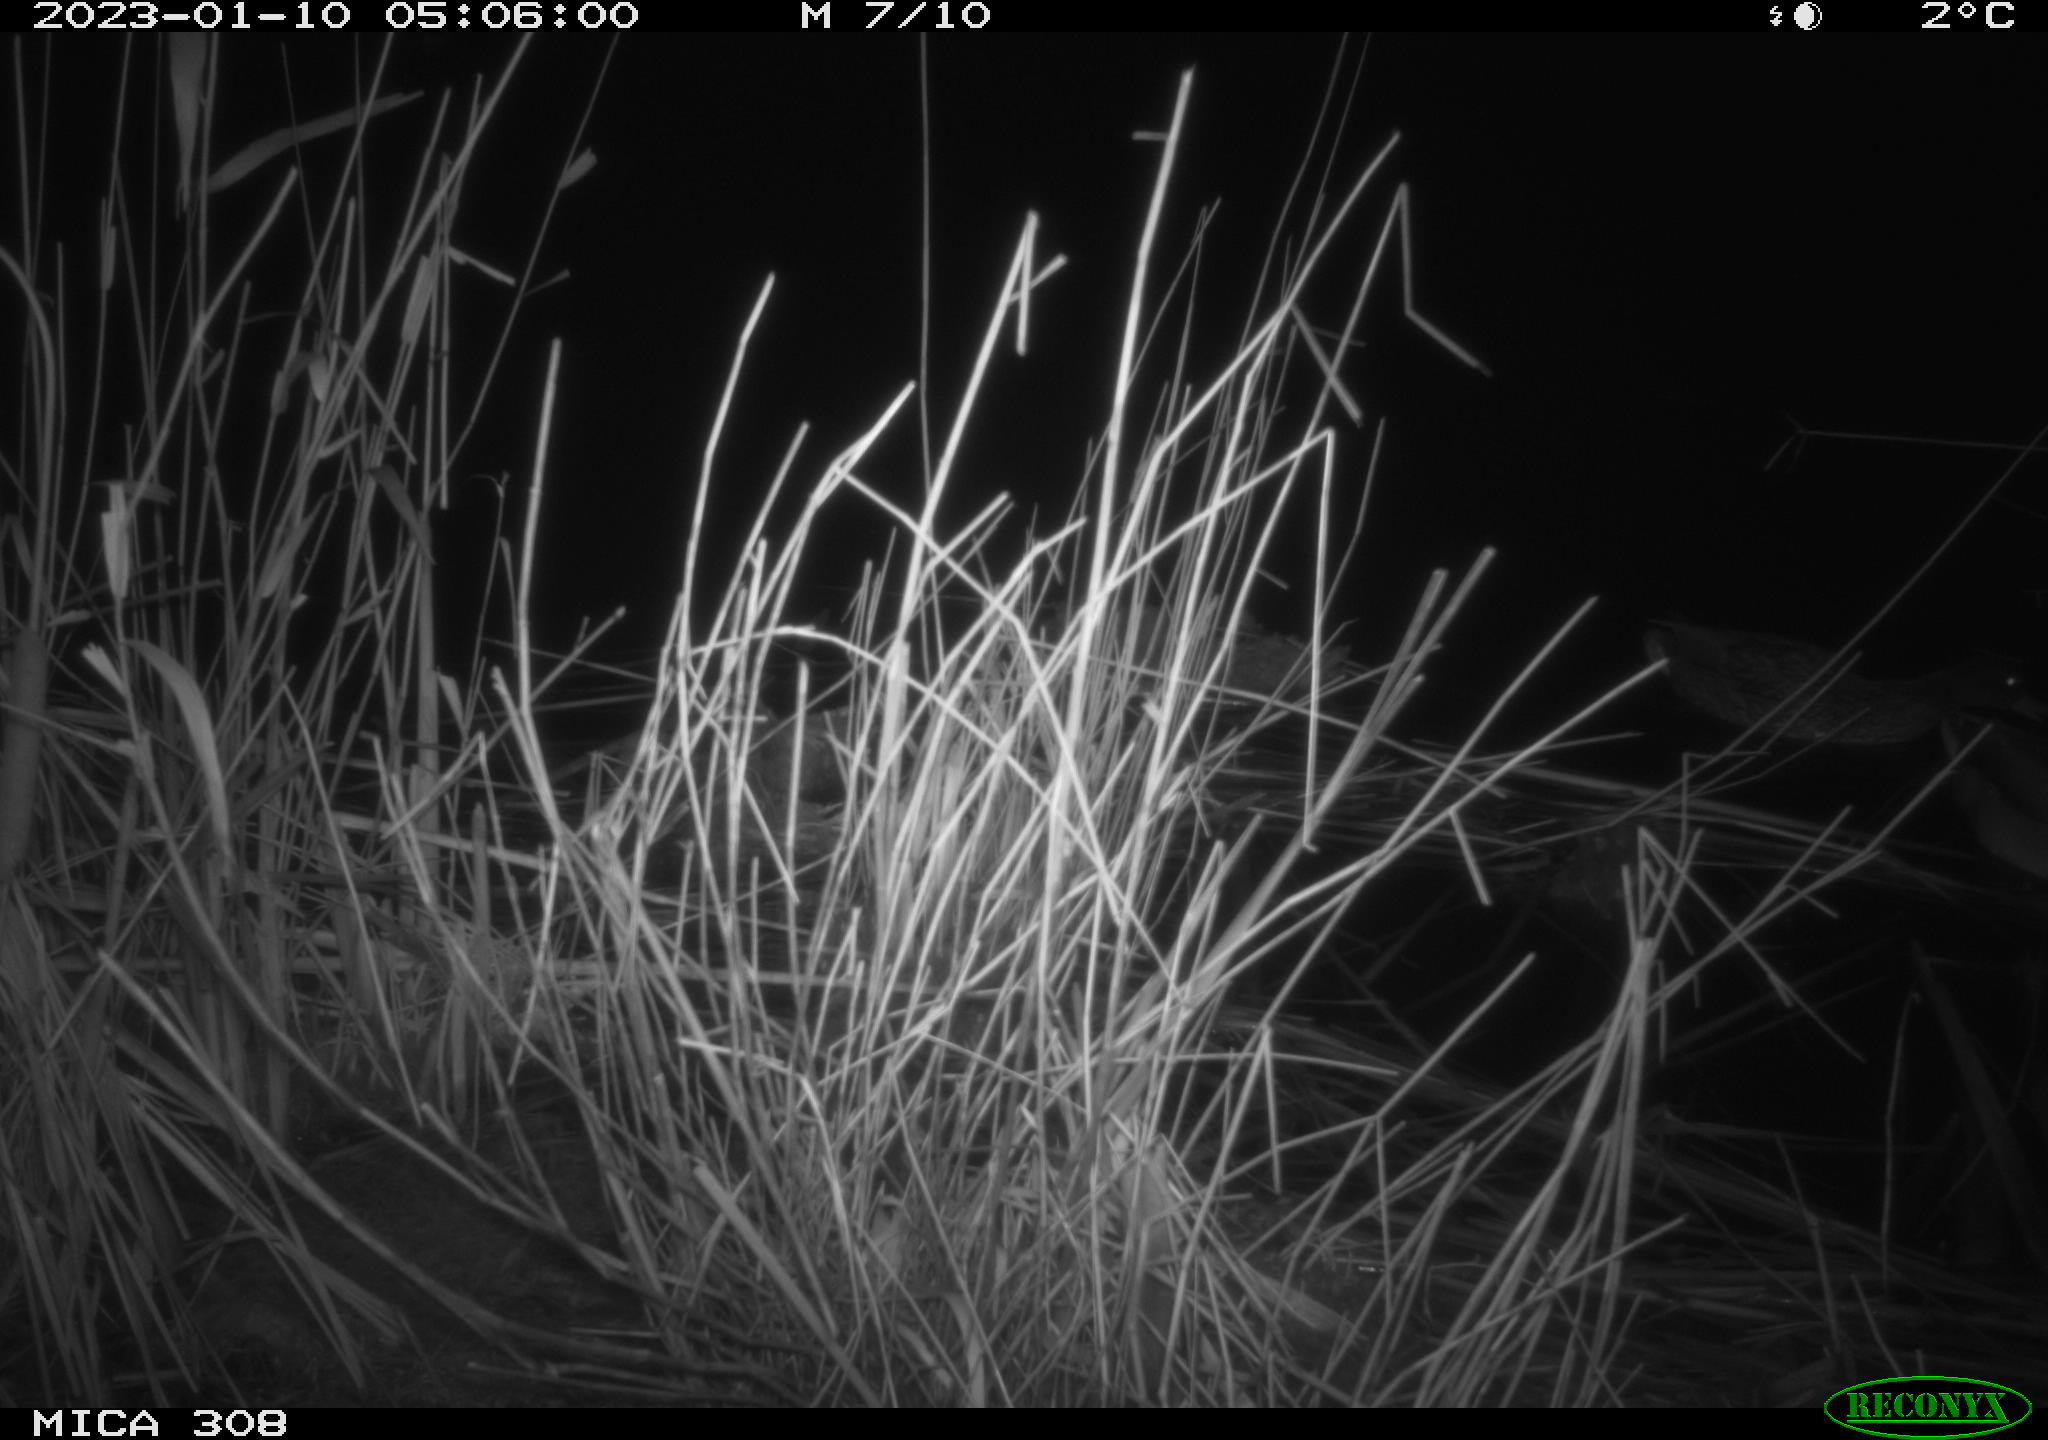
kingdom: Animalia
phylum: Chordata
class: Aves
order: Gruiformes
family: Rallidae
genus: Gallinula
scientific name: Gallinula chloropus
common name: Common moorhen
